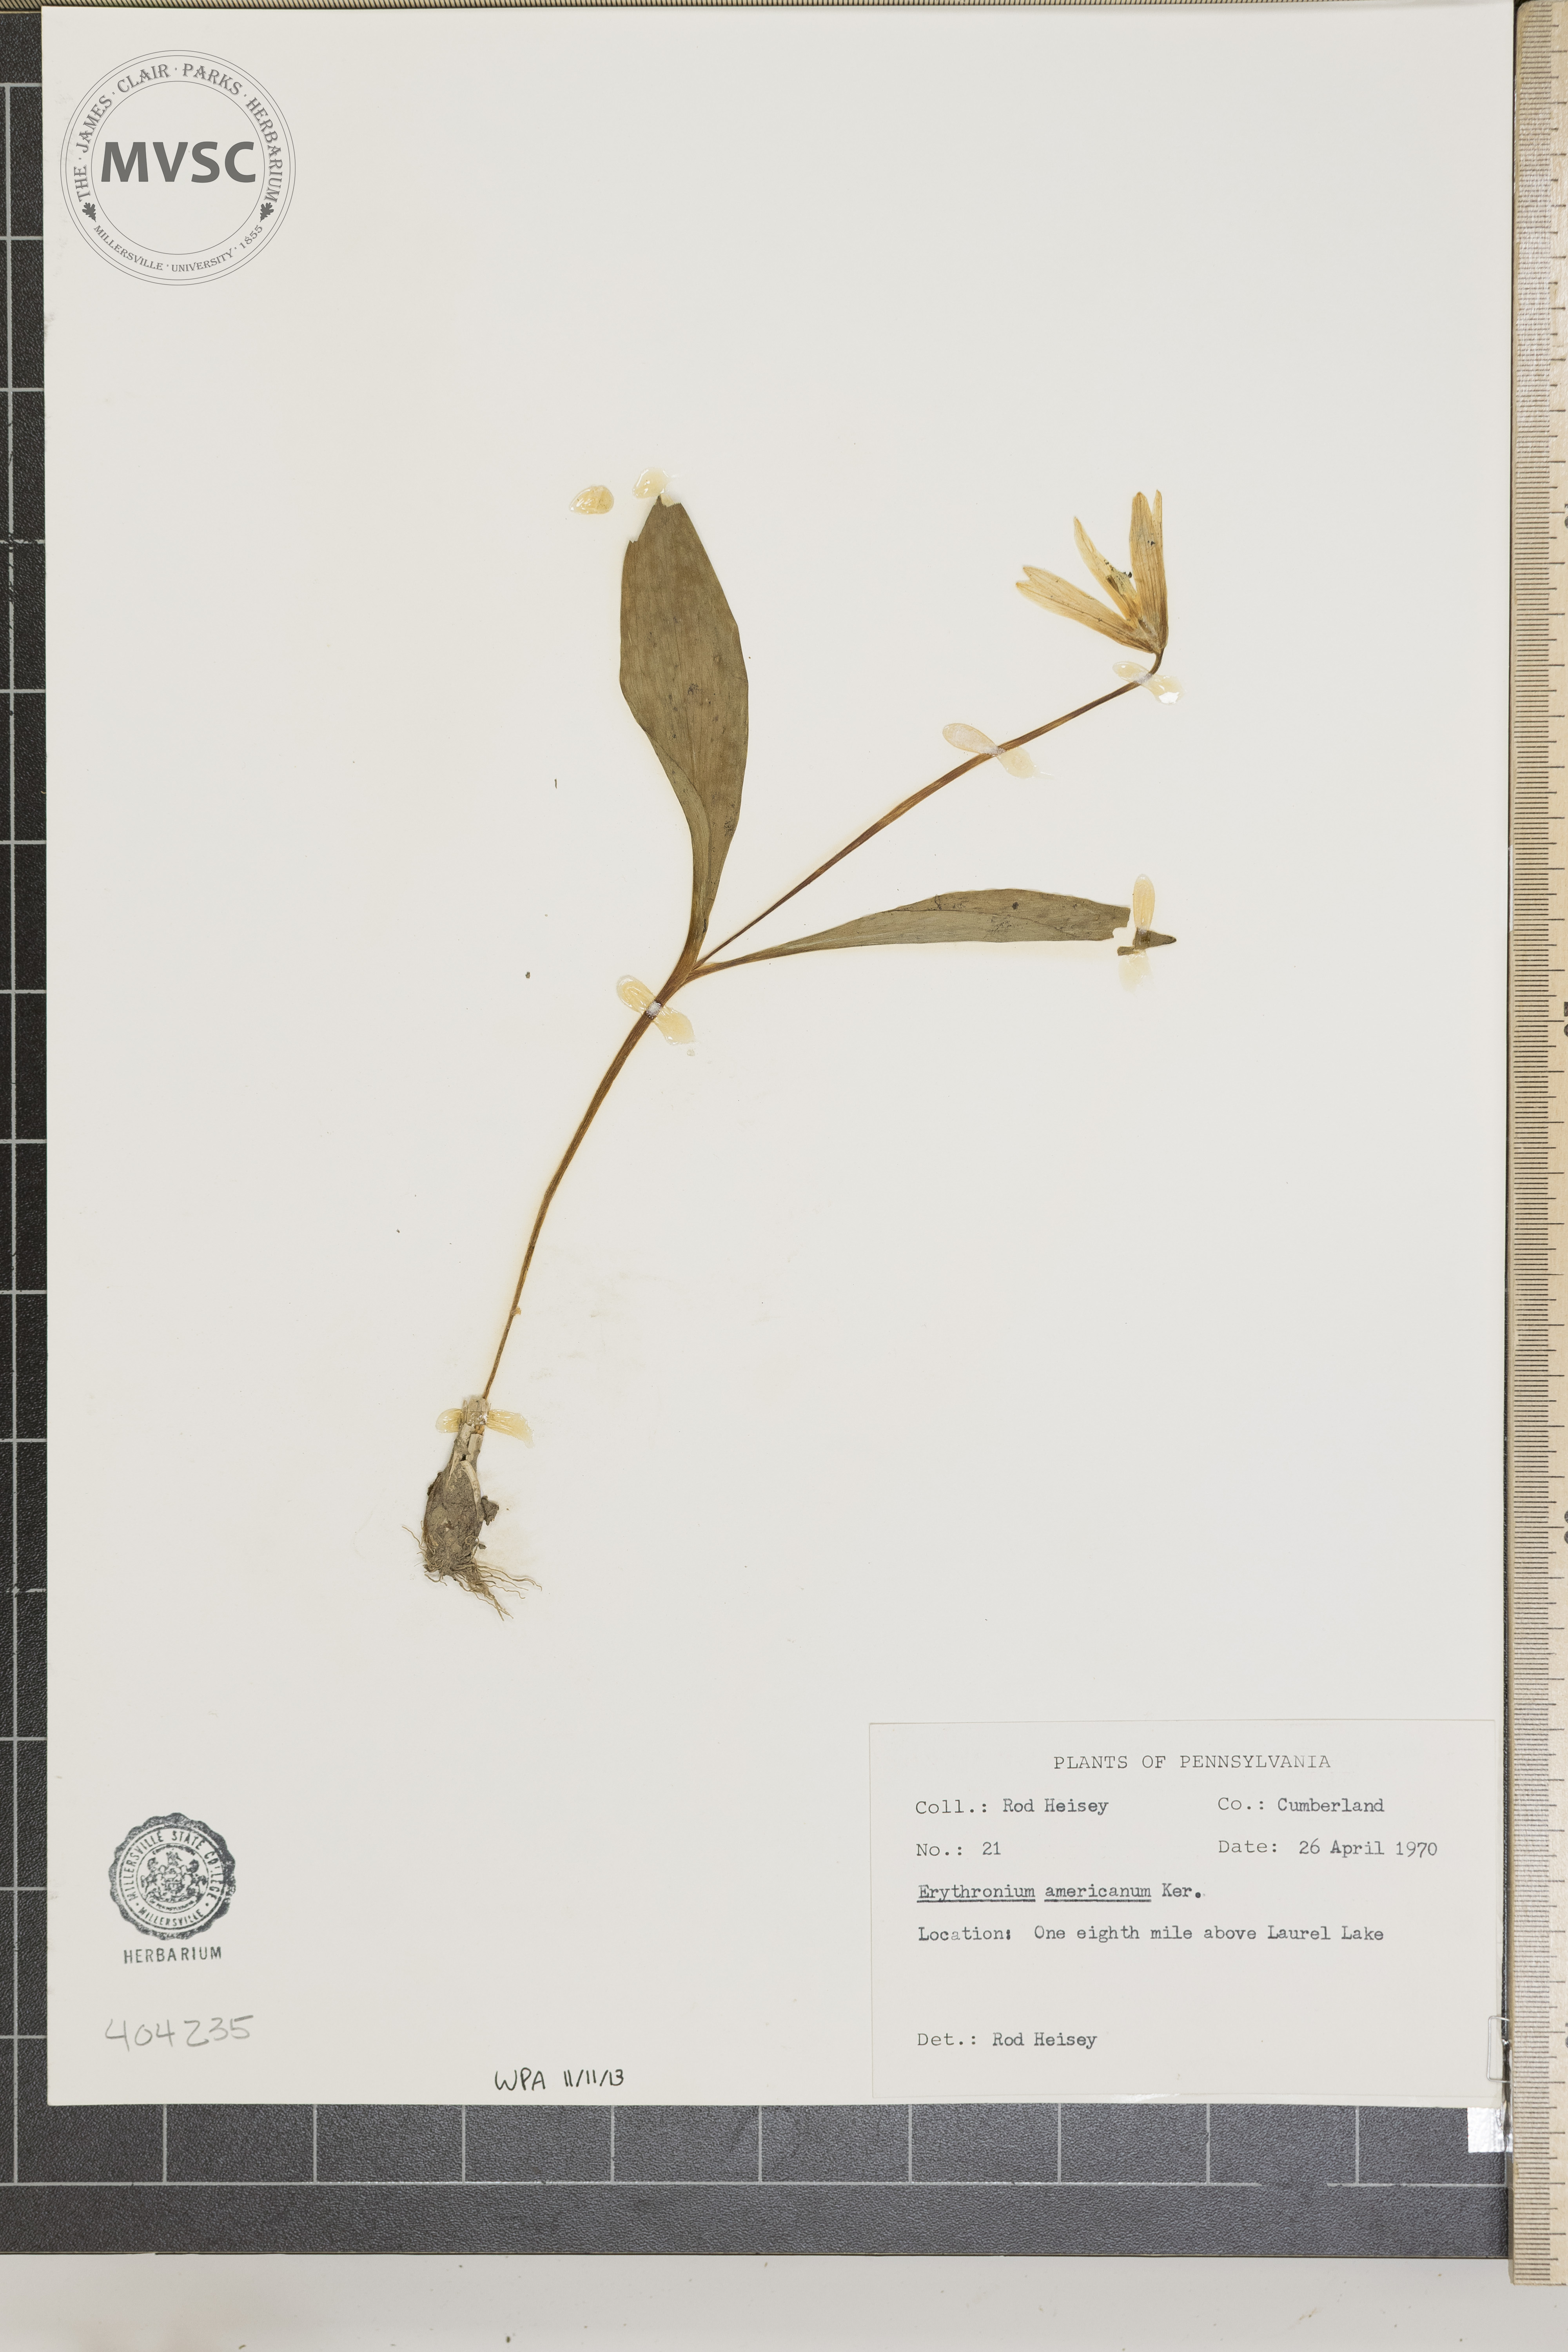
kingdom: Plantae
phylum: Tracheophyta
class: Liliopsida
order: Liliales
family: Liliaceae
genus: Erythronium
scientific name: Erythronium americanum
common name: Yellow adder's-tongue
